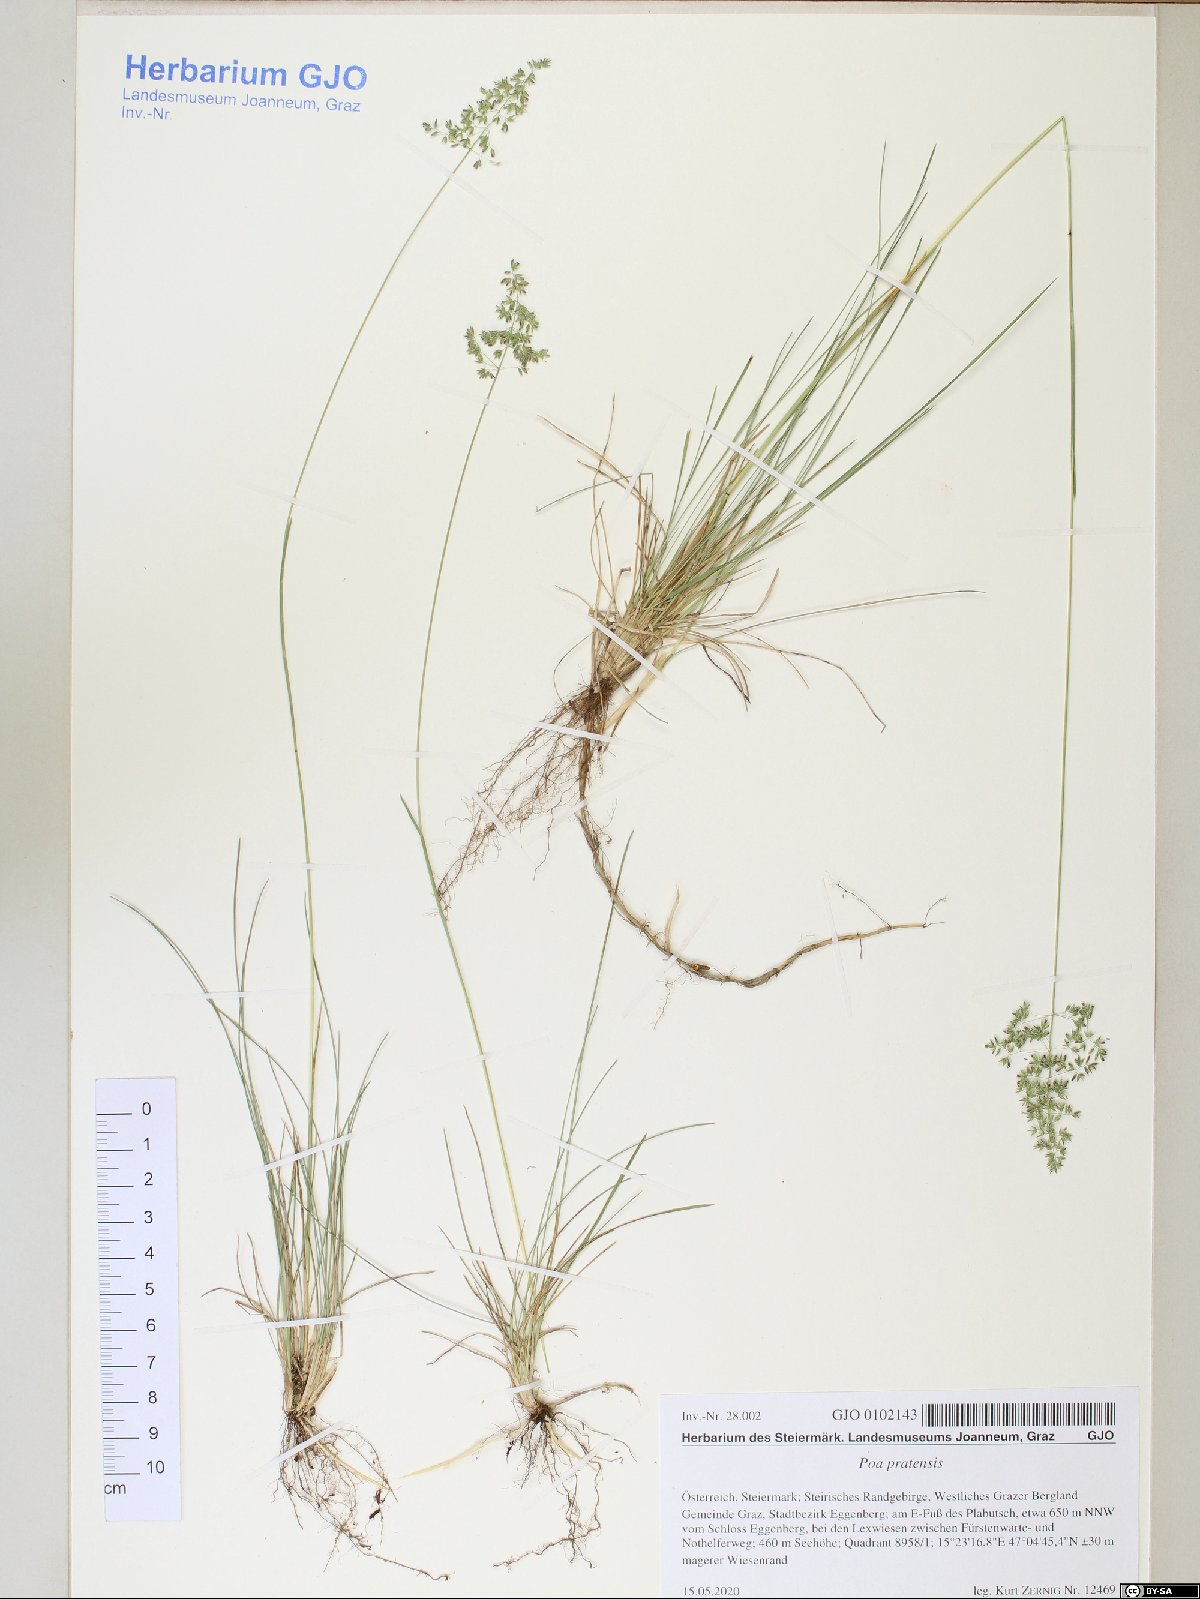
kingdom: Plantae
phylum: Tracheophyta
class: Liliopsida
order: Poales
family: Poaceae
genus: Poa
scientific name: Poa pratensis
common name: Kentucky bluegrass
